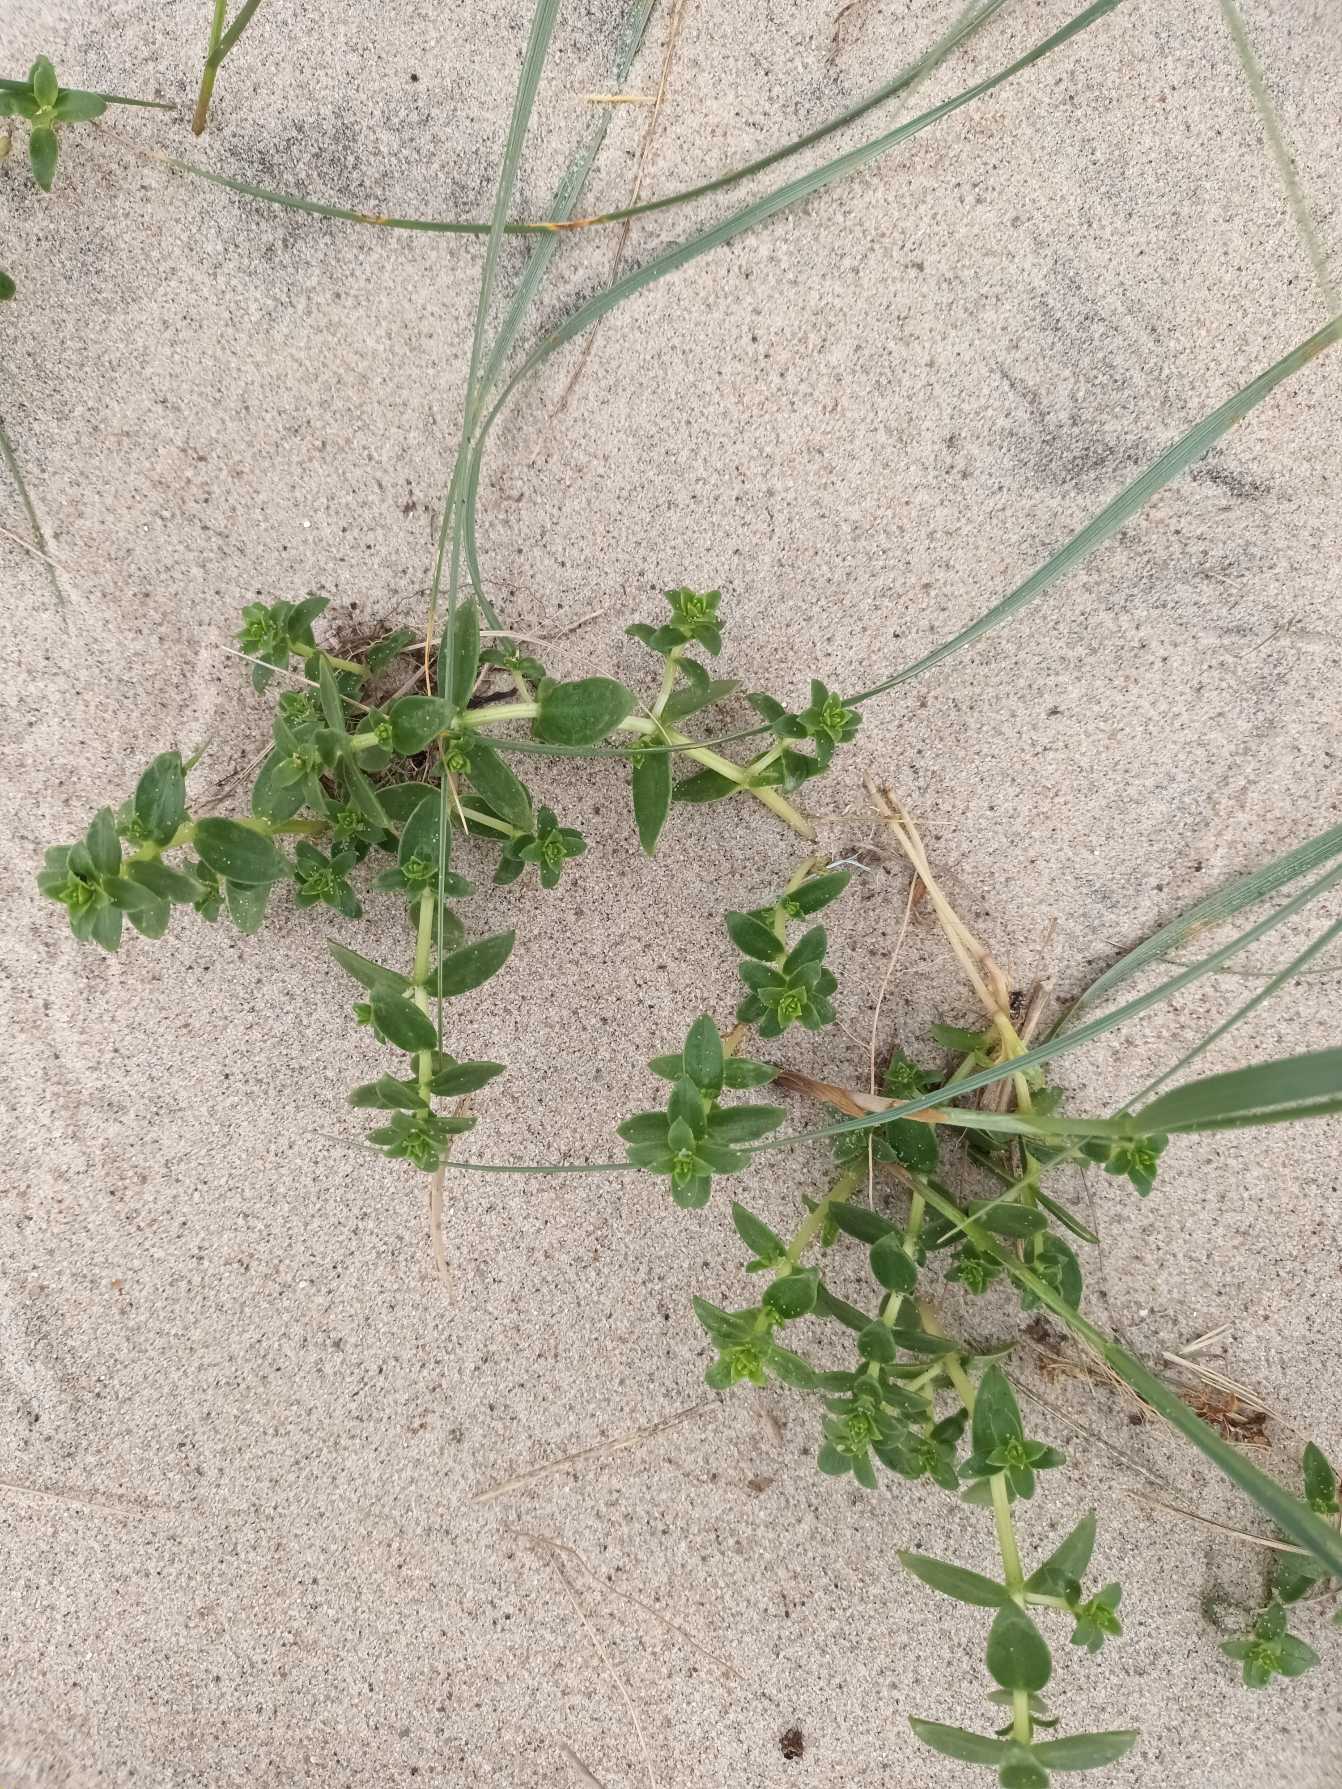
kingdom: Plantae
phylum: Tracheophyta
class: Magnoliopsida
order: Caryophyllales
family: Caryophyllaceae
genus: Honckenya
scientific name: Honckenya peploides
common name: Strandarve
